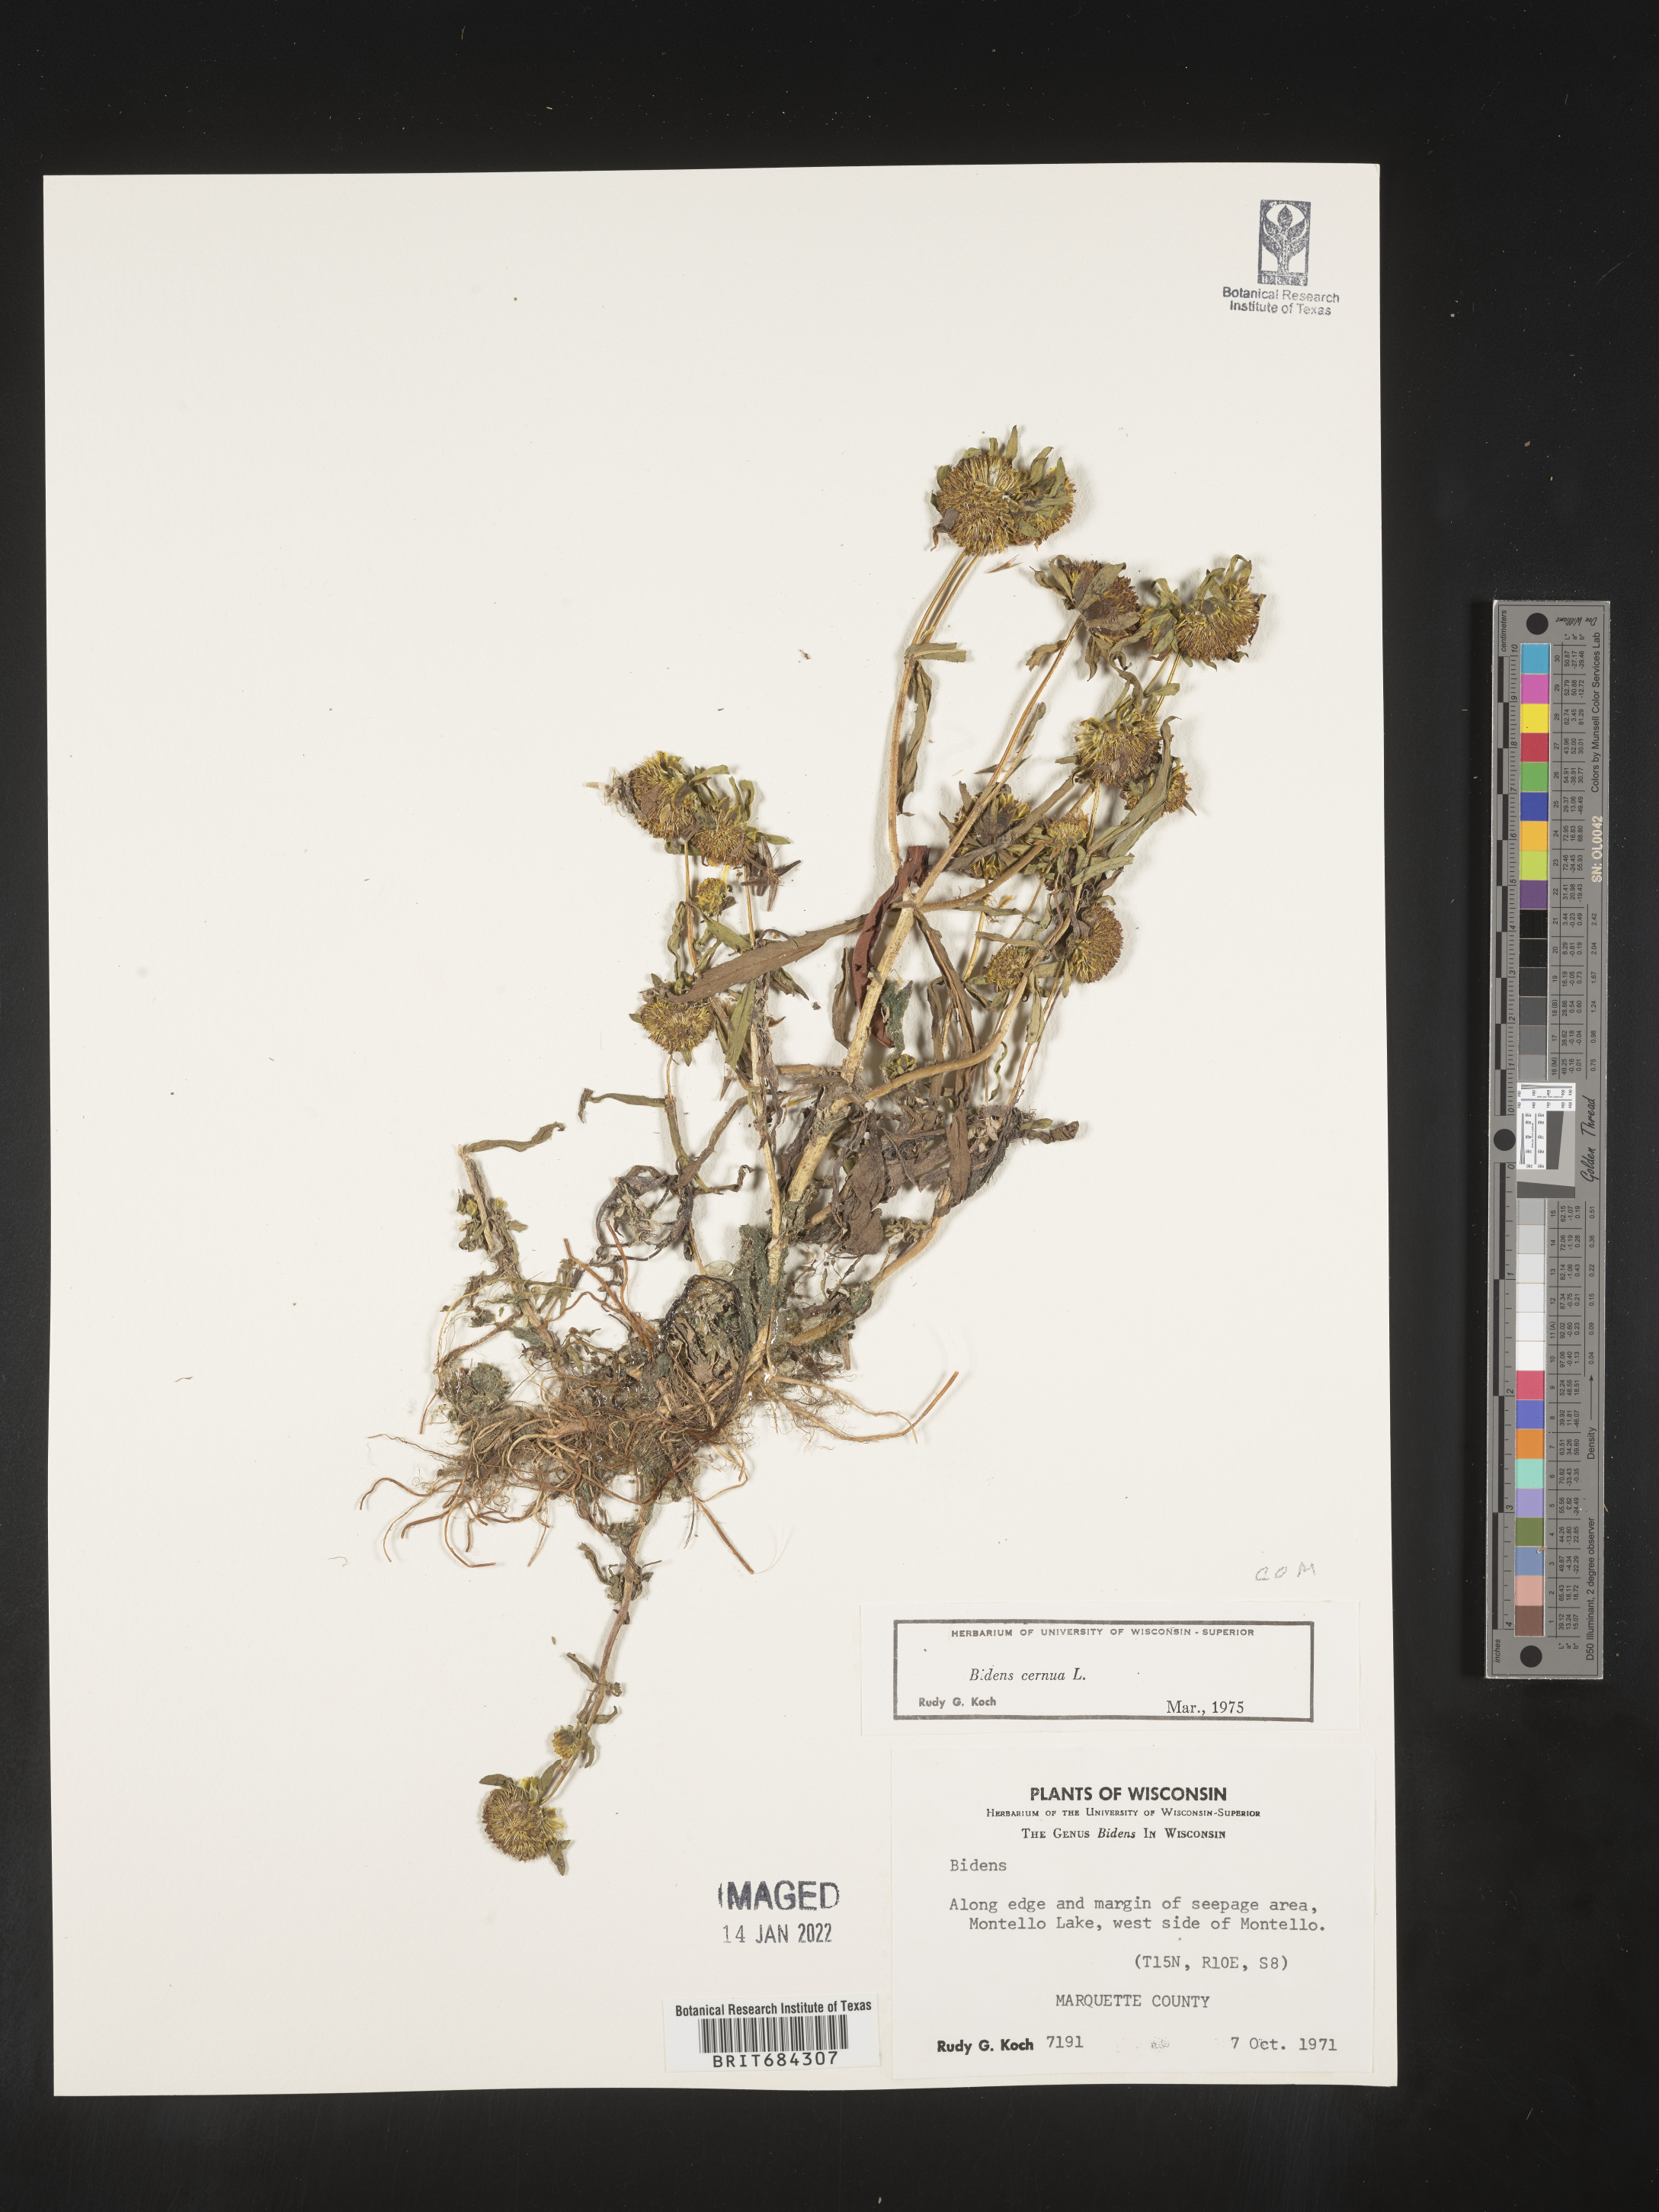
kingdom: Plantae
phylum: Tracheophyta
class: Magnoliopsida
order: Asterales
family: Asteraceae
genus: Bidens
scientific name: Bidens cernua
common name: Nodding bur-marigold
